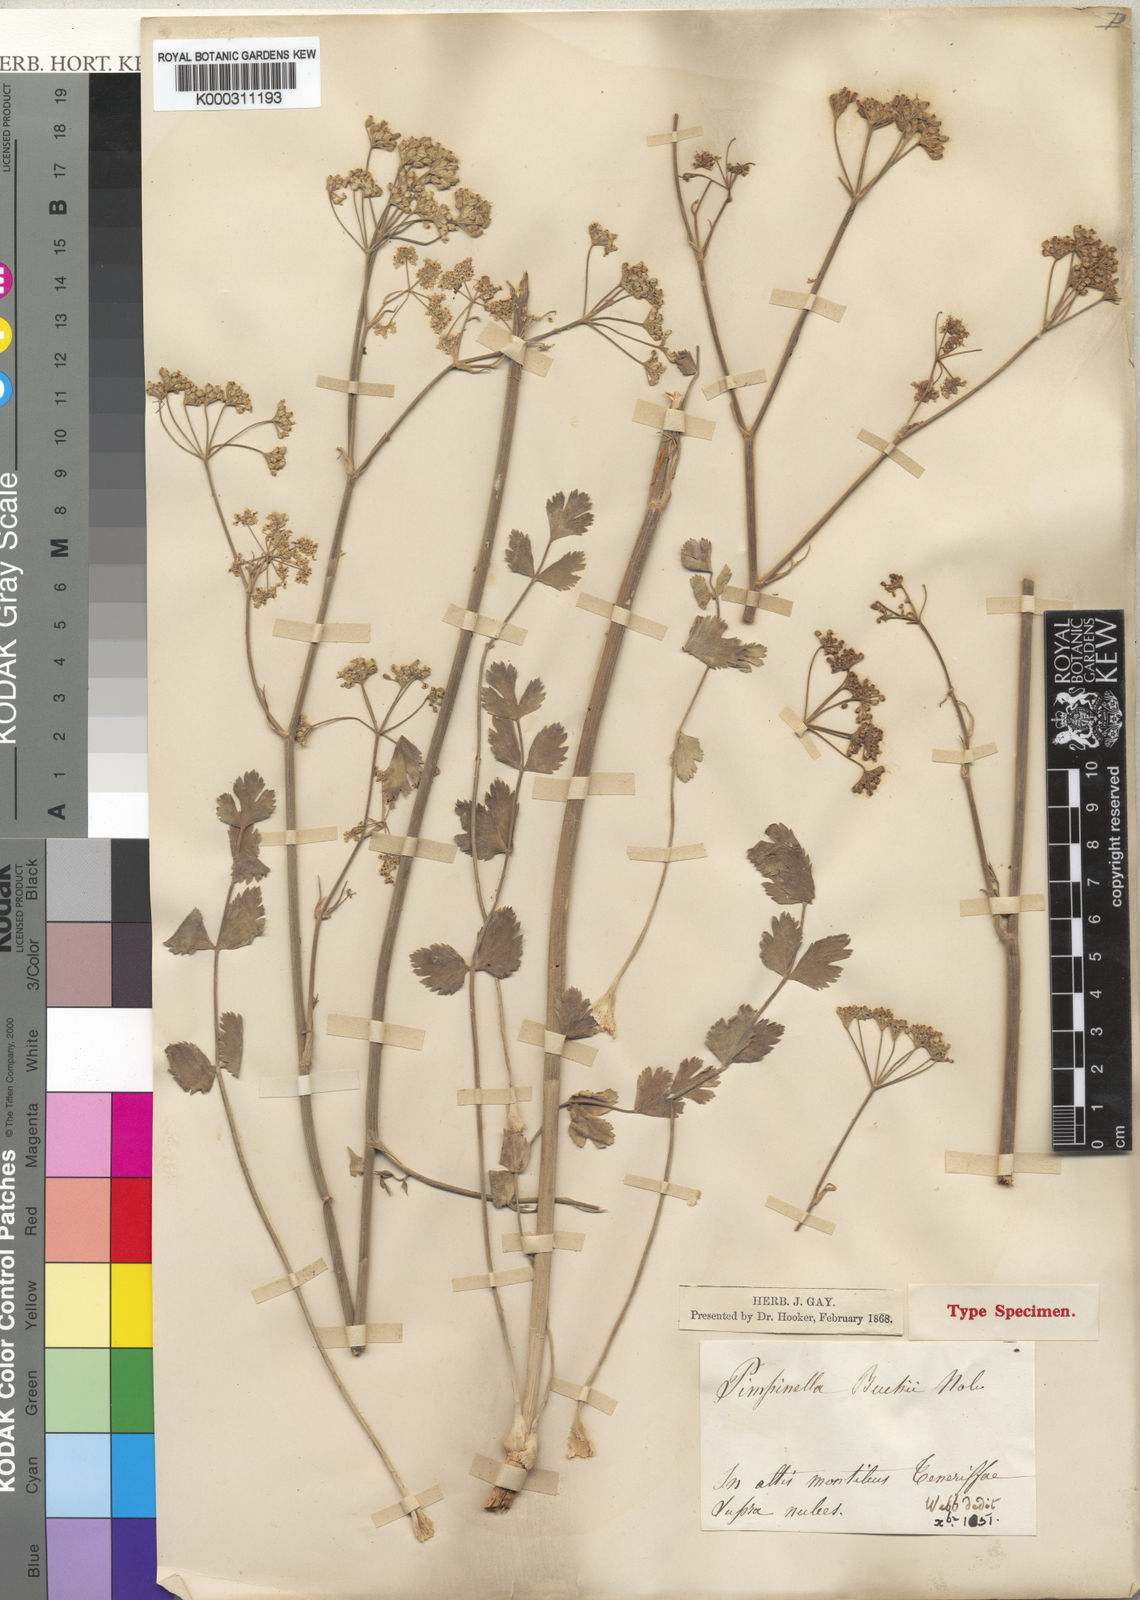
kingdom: Plantae
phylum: Tracheophyta
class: Magnoliopsida
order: Apiales
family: Apiaceae
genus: Pimpinella
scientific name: Pimpinella cumbrae
